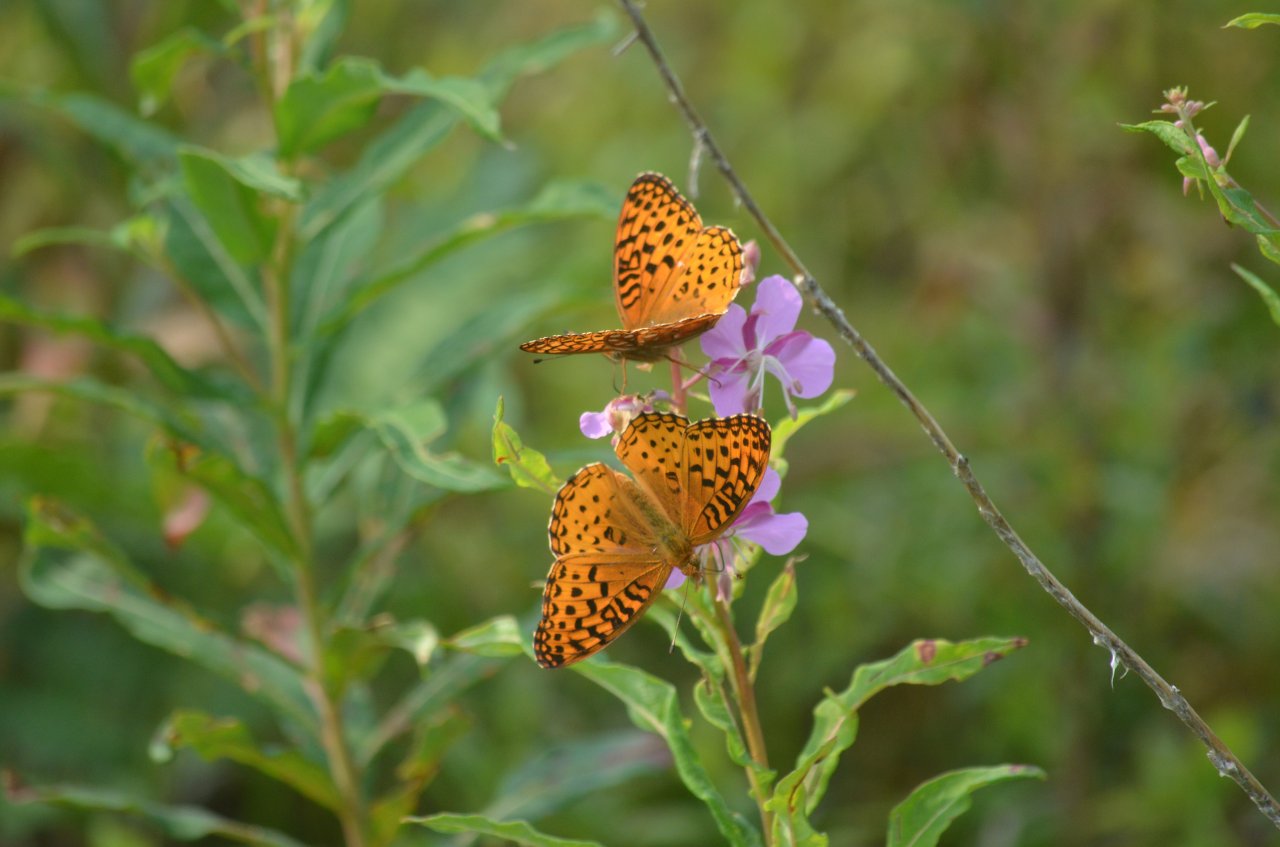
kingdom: Animalia
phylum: Arthropoda
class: Insecta
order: Lepidoptera
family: Nymphalidae
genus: Speyeria
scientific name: Speyeria aphrodite
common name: Aphrodite Fritillary
